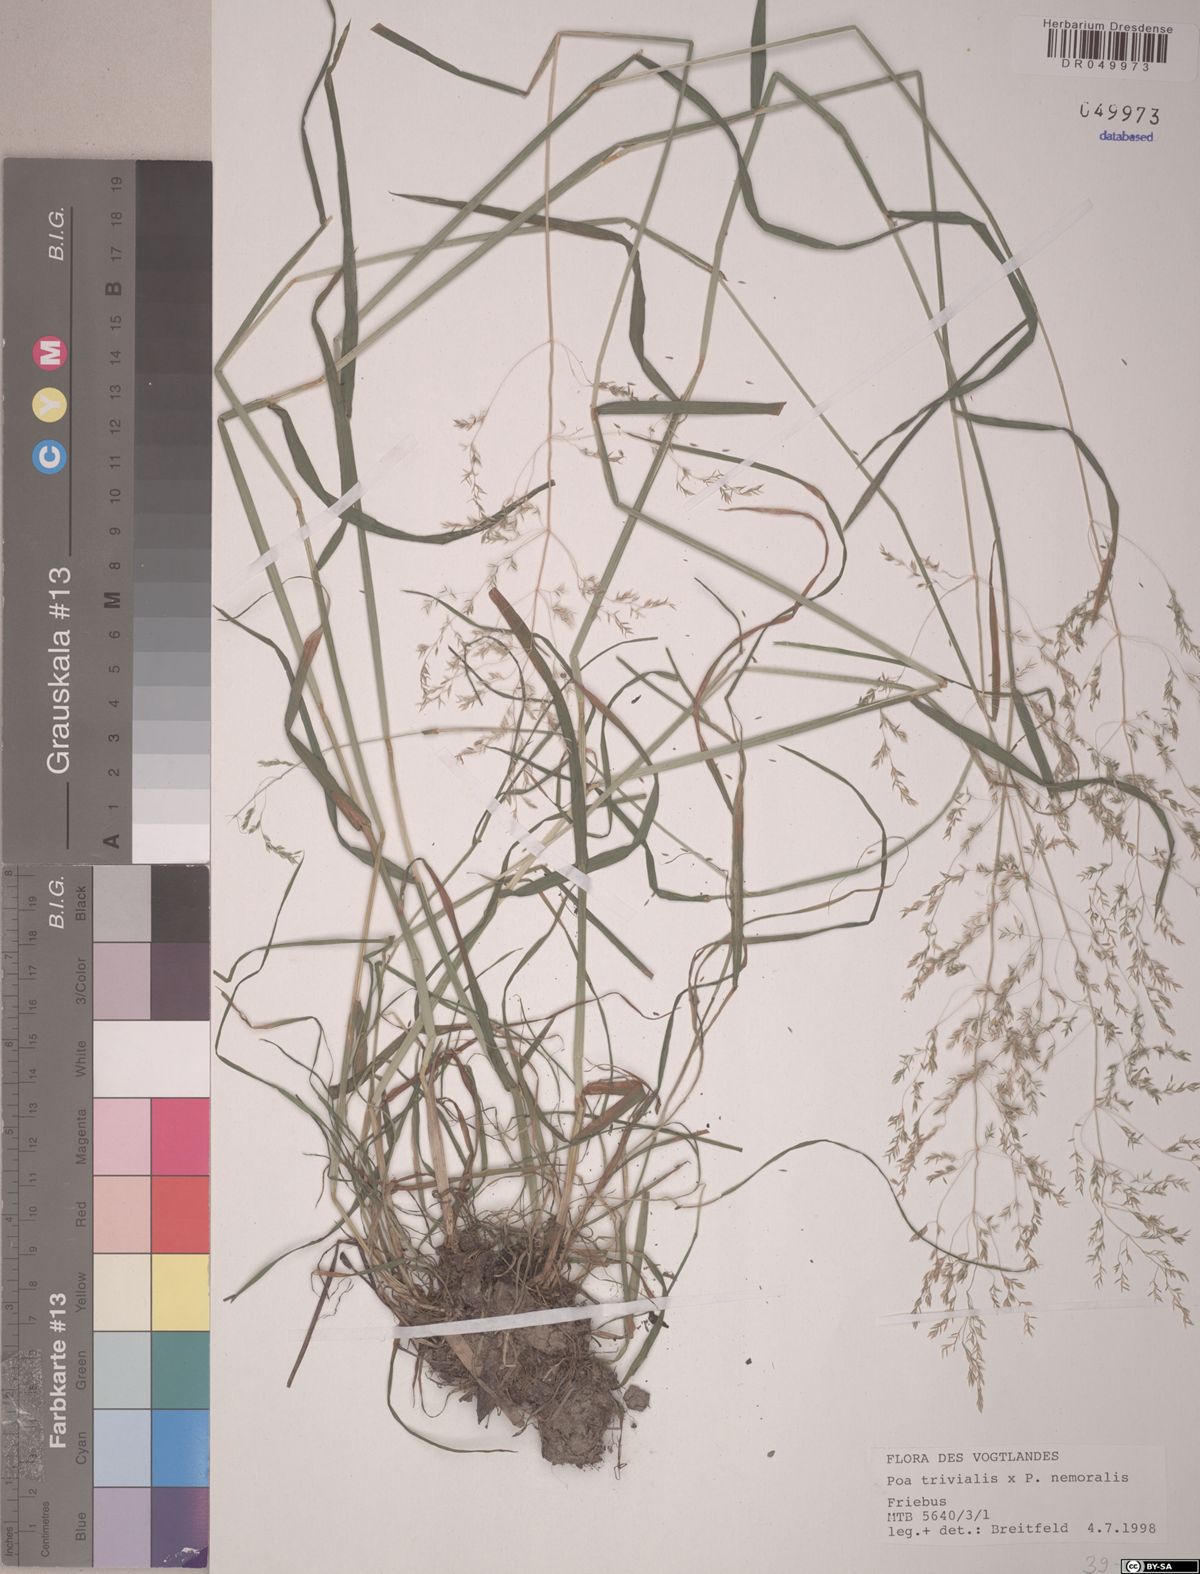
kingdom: Plantae
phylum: Tracheophyta
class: Liliopsida
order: Poales
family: Poaceae
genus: Poa
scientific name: Poa trivialis
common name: Rough bluegrass
